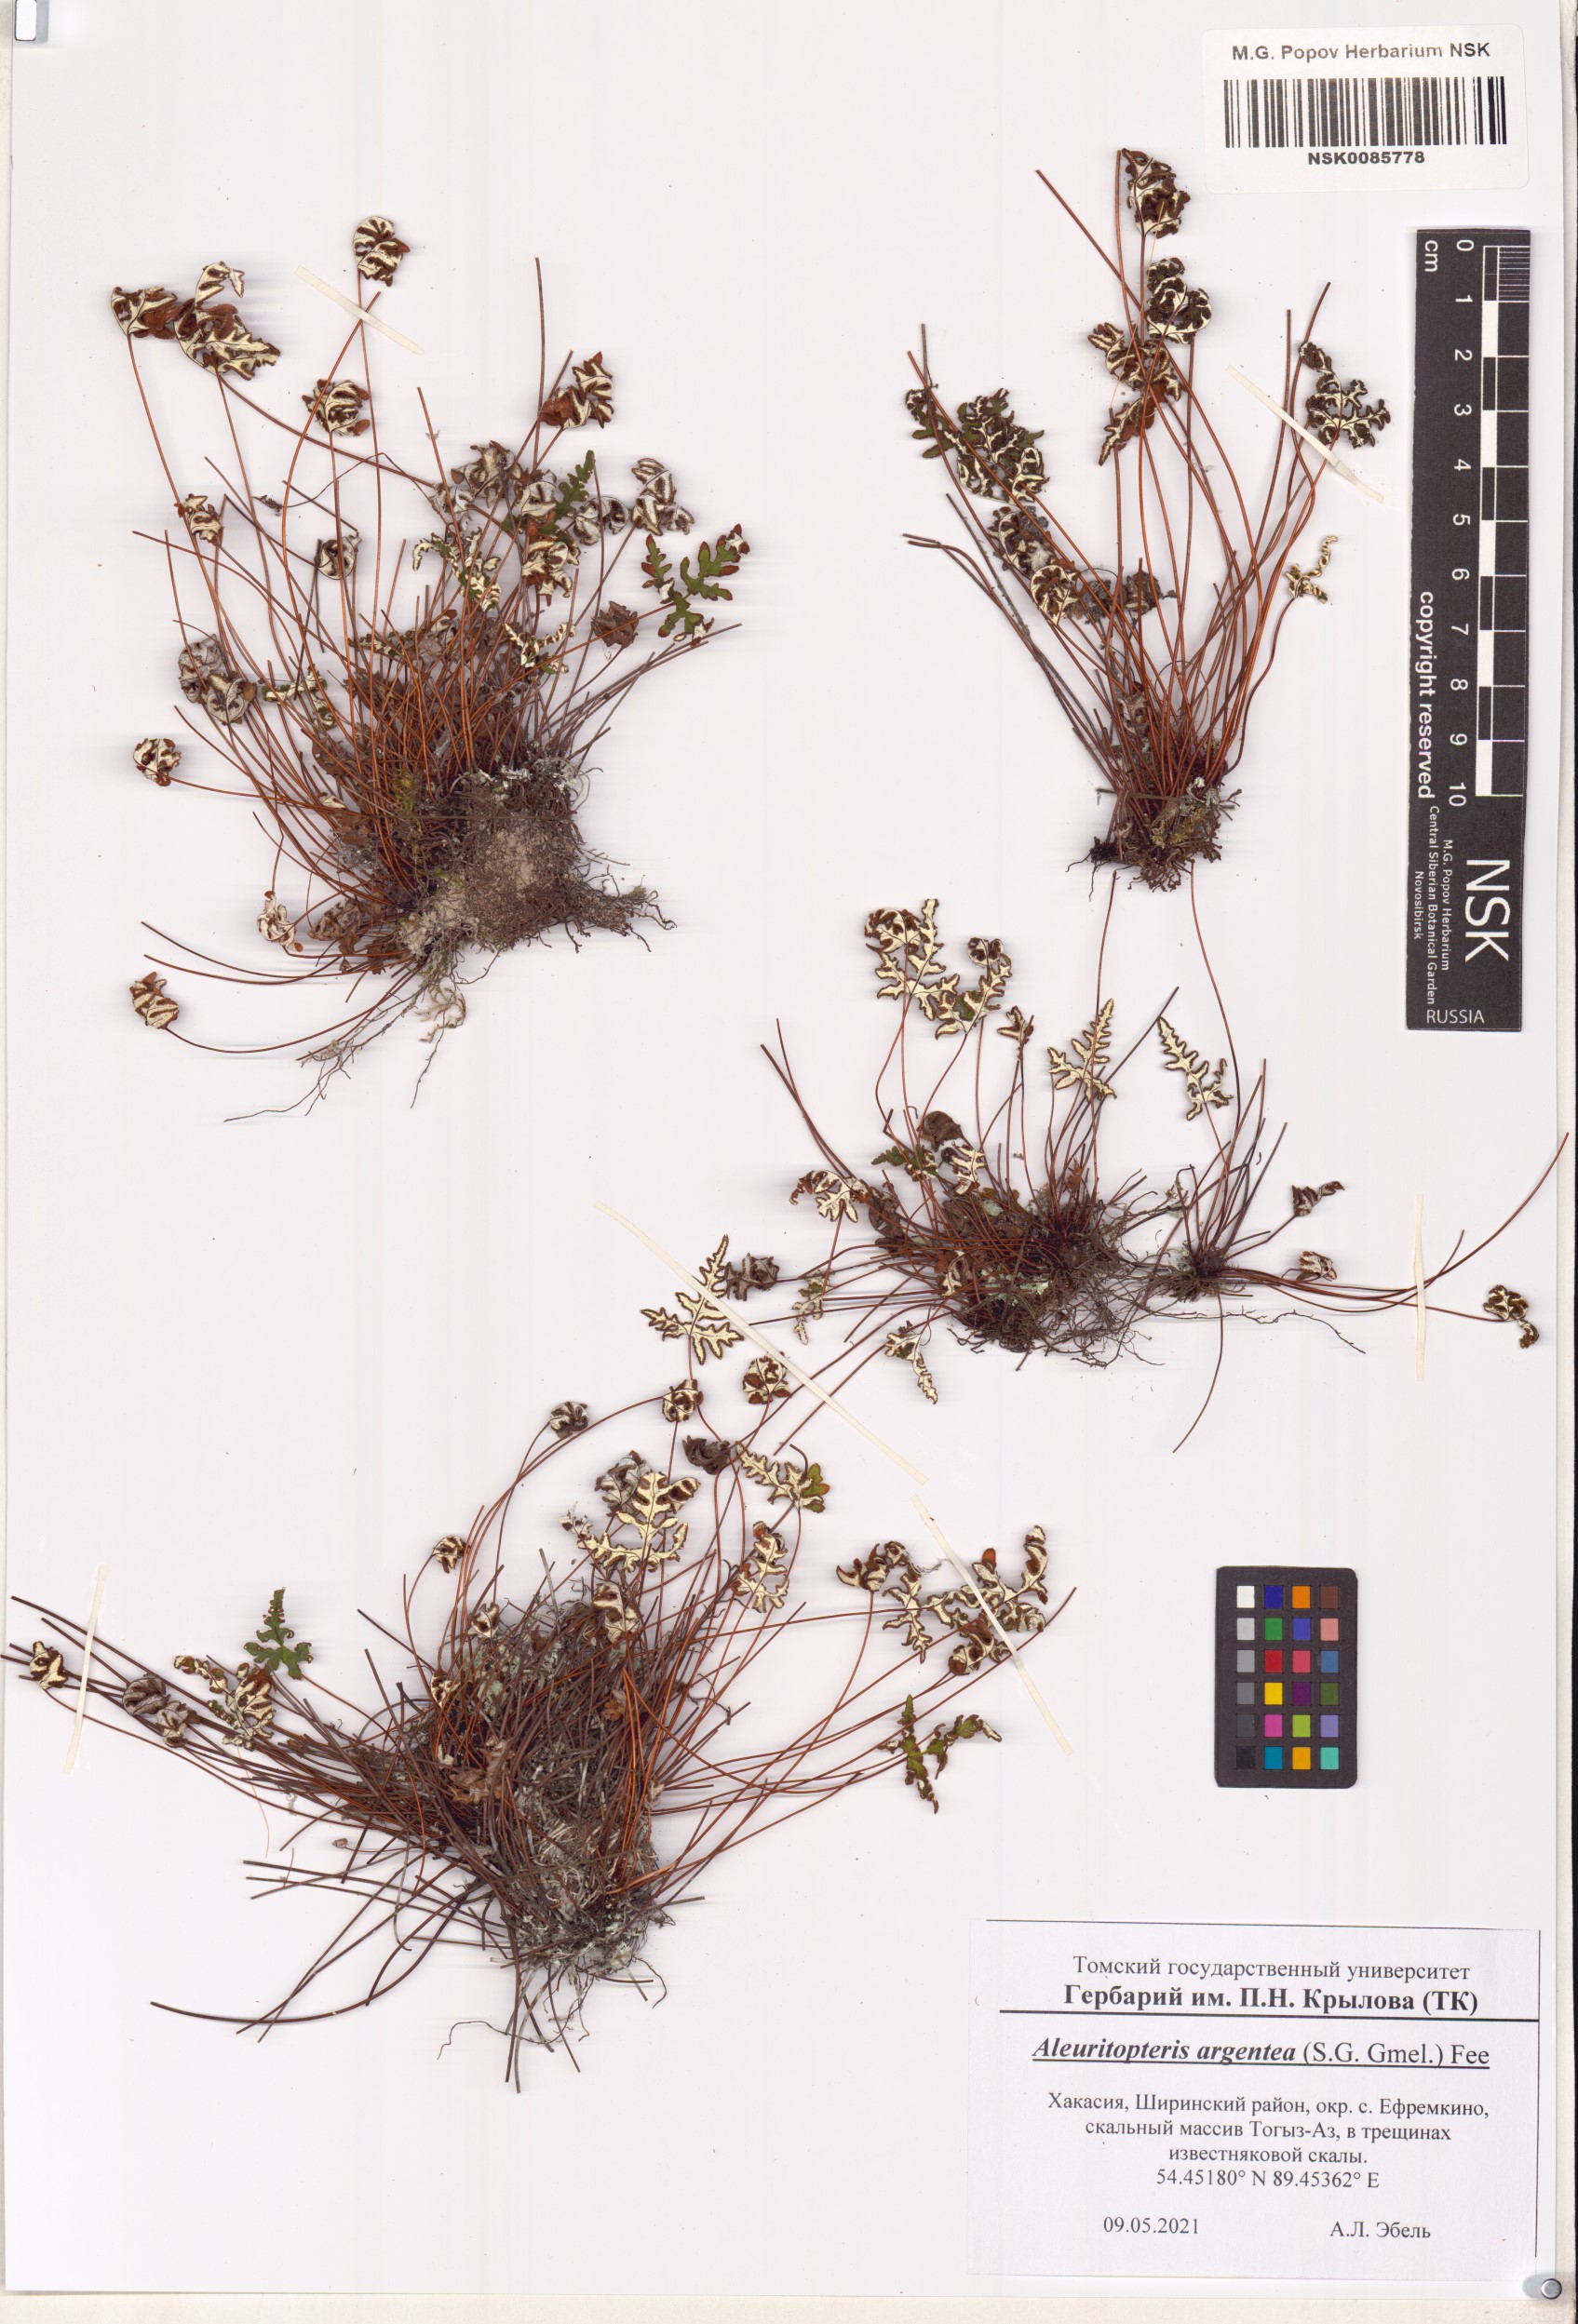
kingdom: Plantae
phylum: Tracheophyta
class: Polypodiopsida
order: Polypodiales
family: Pteridaceae
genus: Aleuritopteris
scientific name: Aleuritopteris argentea
